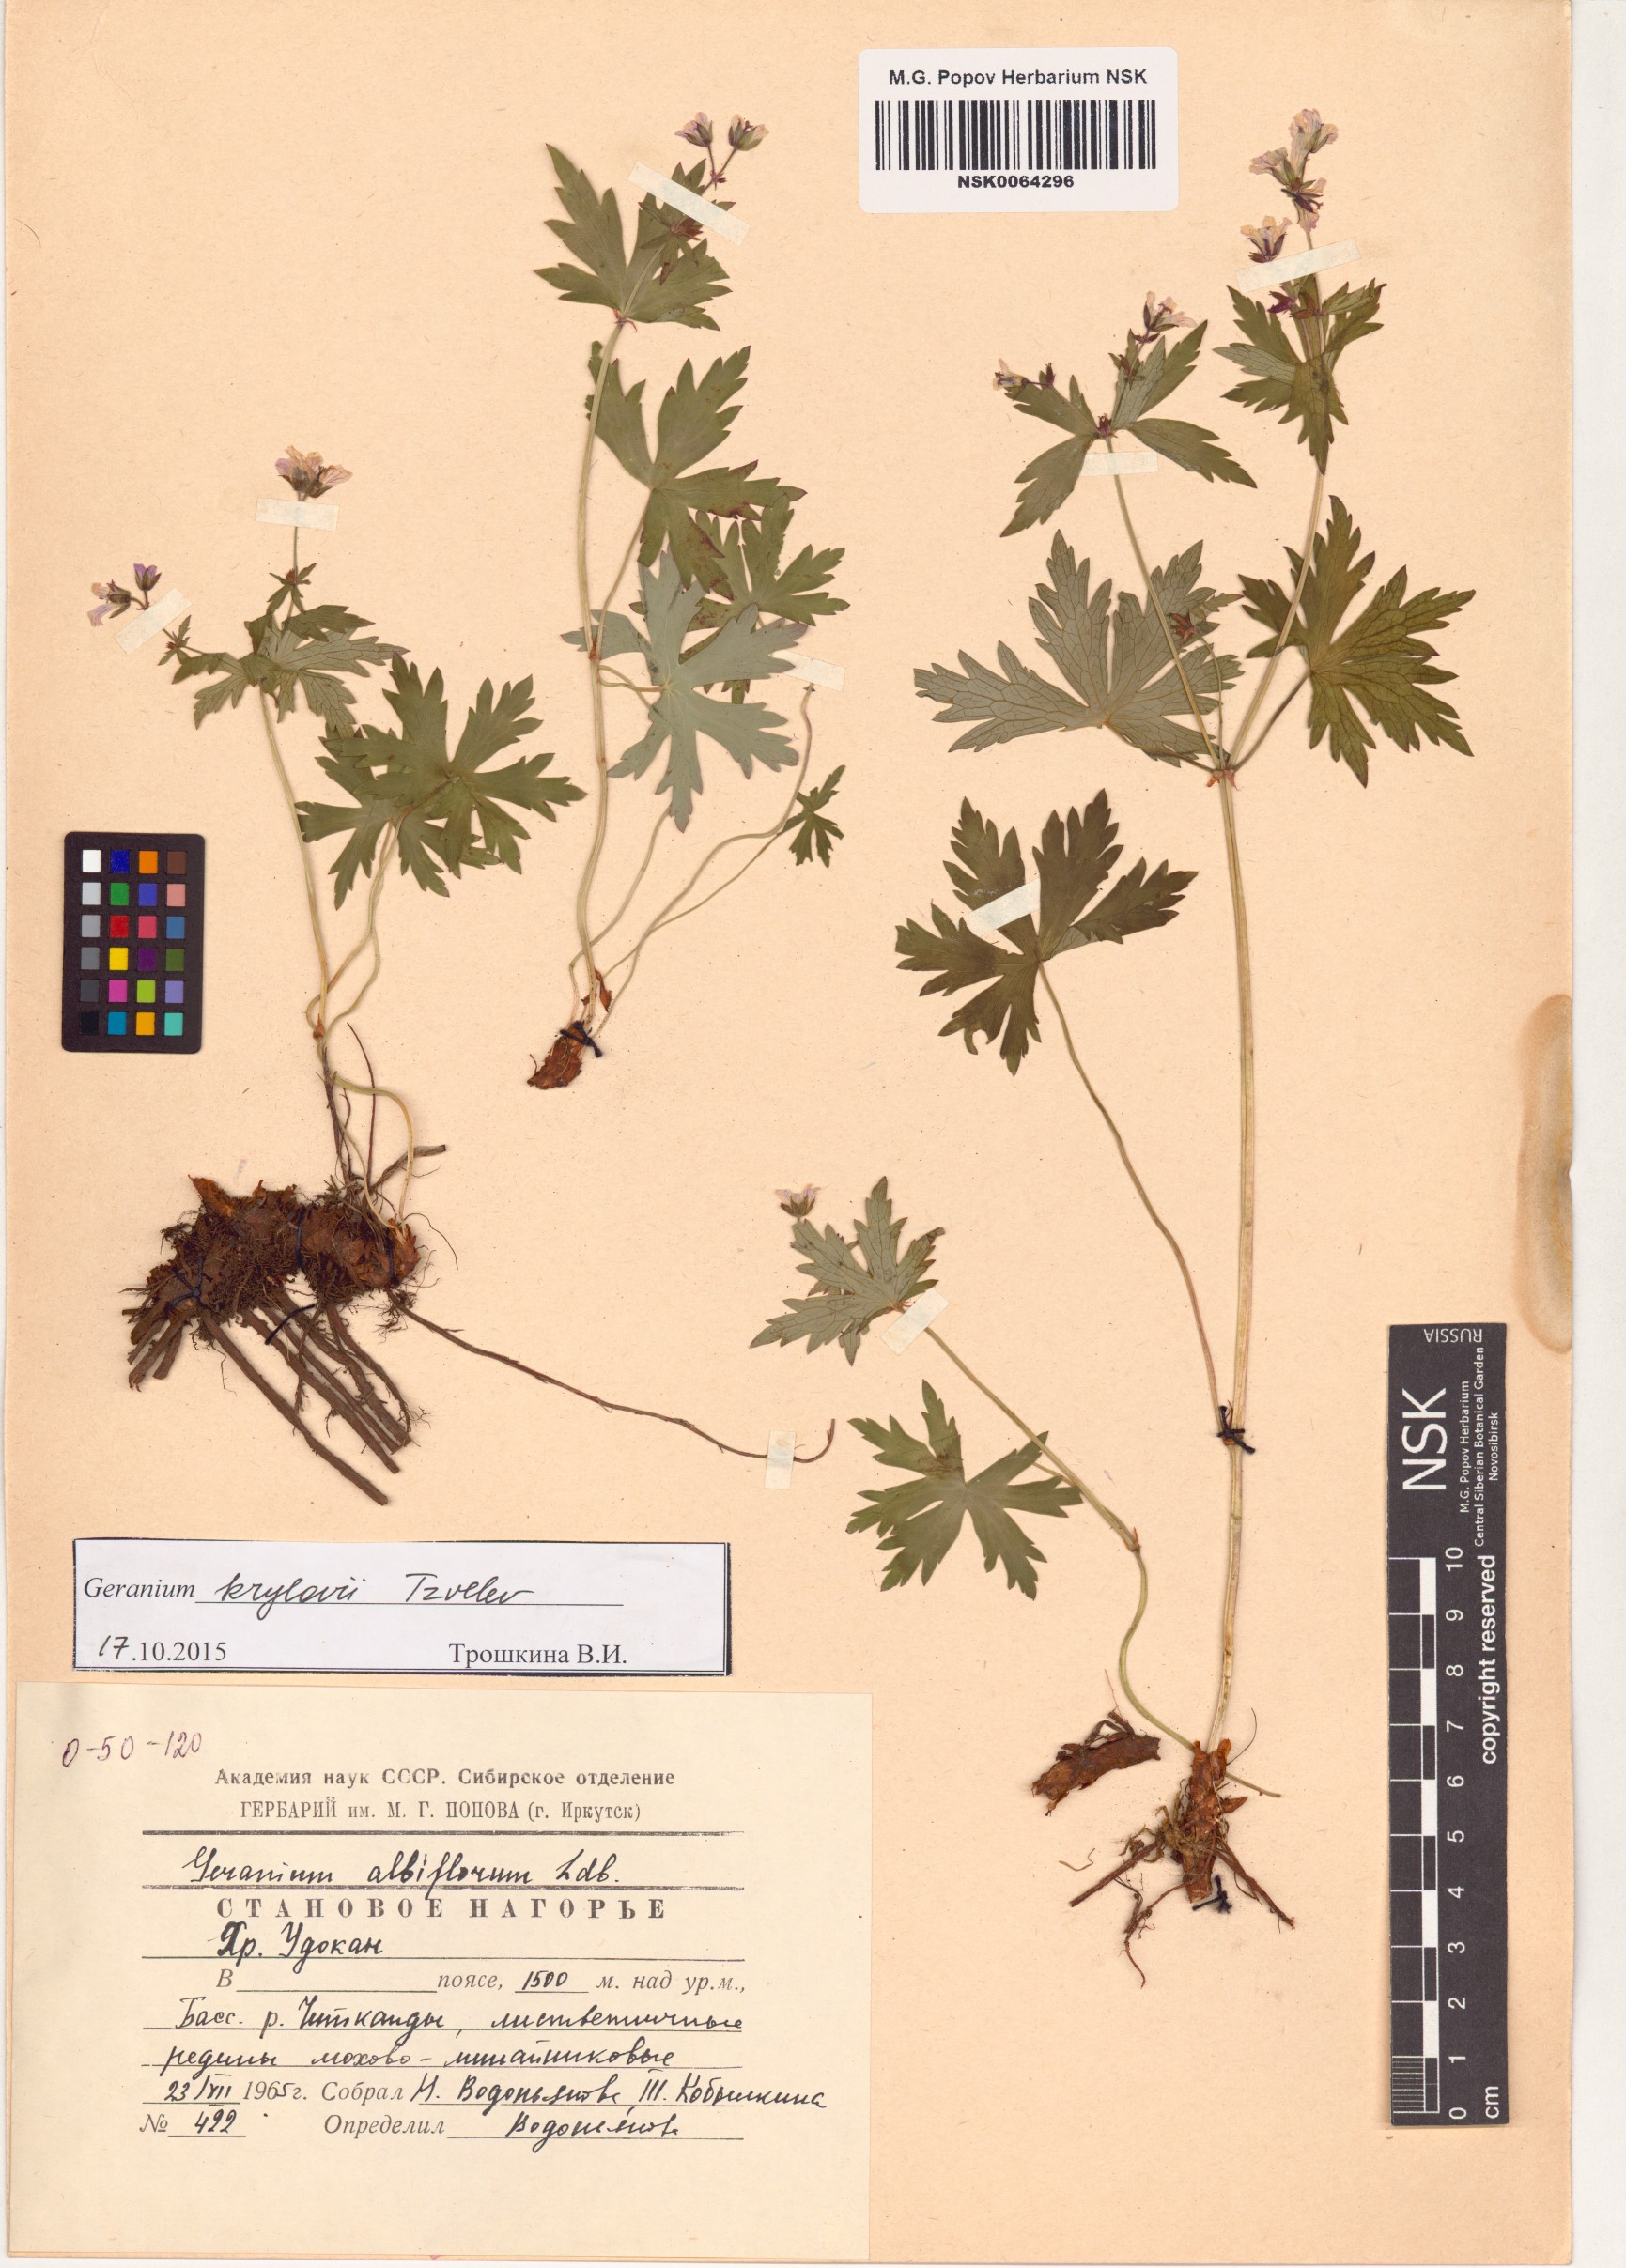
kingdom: Plantae
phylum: Tracheophyta
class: Magnoliopsida
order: Geraniales
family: Geraniaceae
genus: Geranium
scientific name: Geranium sylvaticum
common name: Wood crane's-bill
